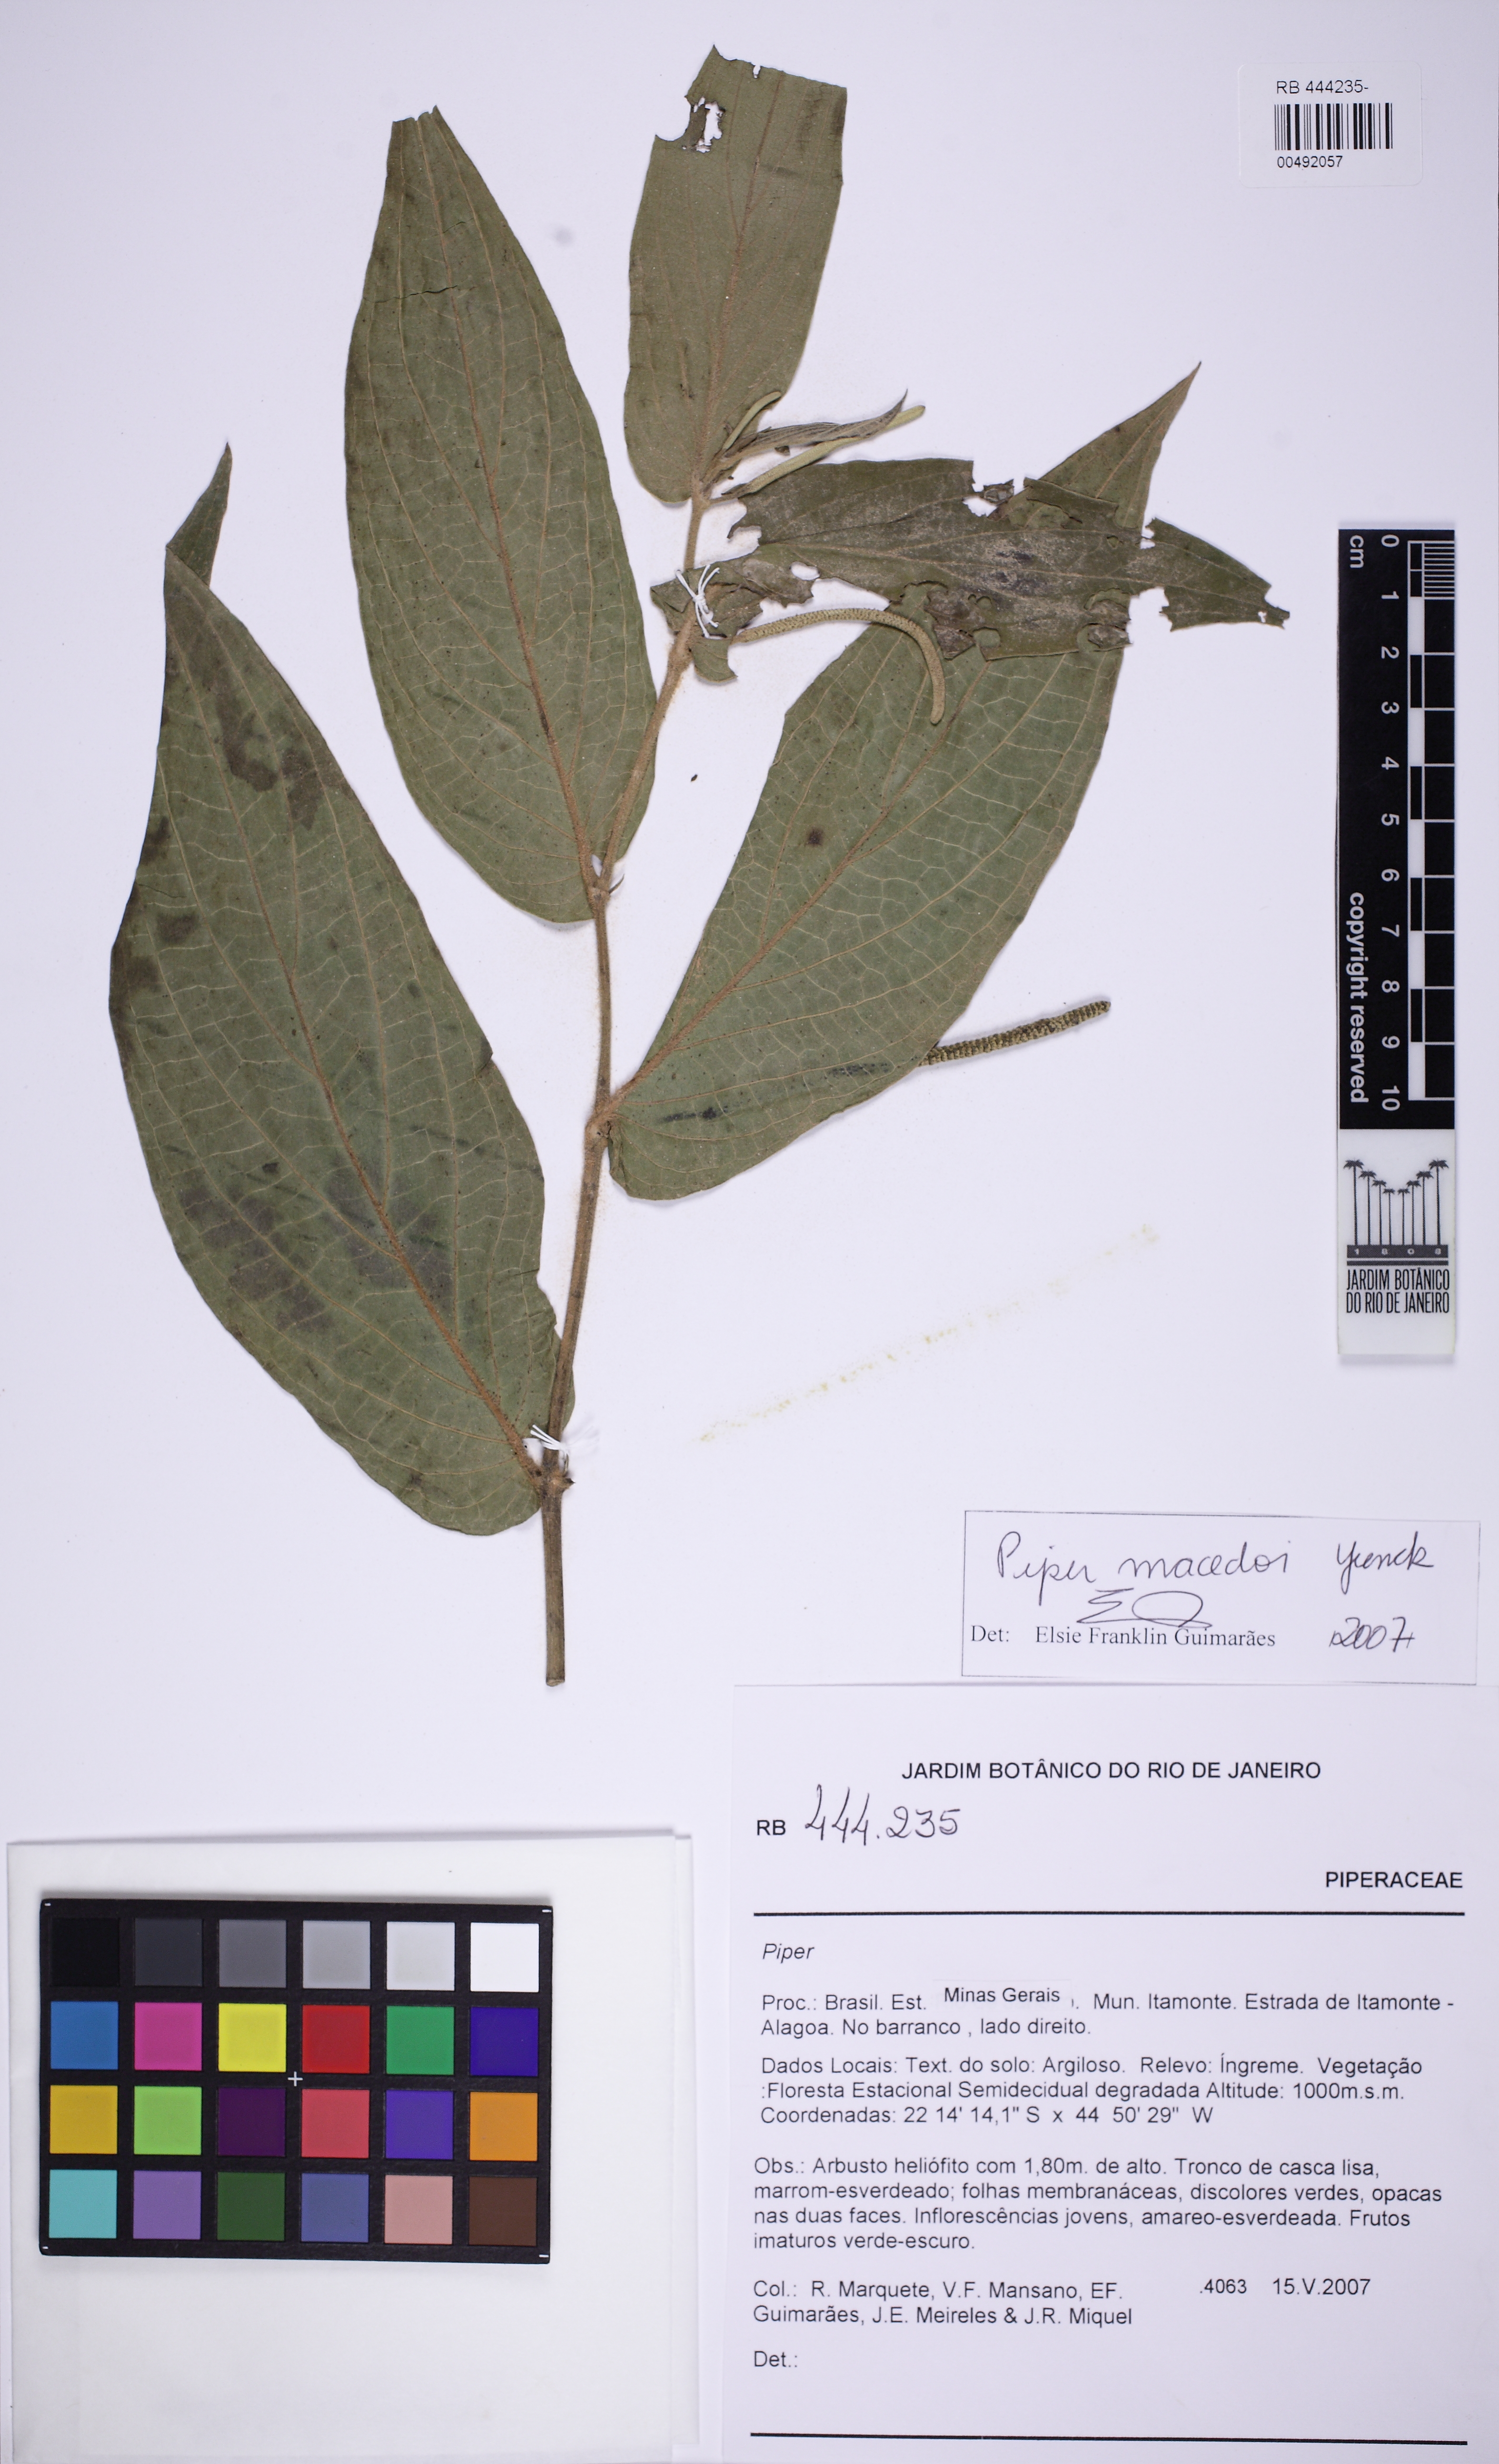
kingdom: Plantae
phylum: Tracheophyta
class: Magnoliopsida
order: Piperales
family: Piperaceae
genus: Piper
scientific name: Piper macedoi
